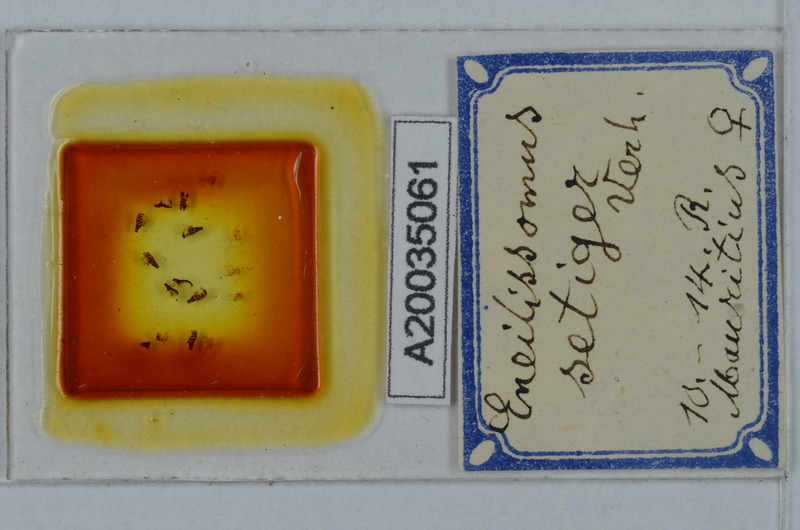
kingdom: Animalia
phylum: Arthropoda
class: Diplopoda
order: Polydesmida
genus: Eneillissomus
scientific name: Eneillissomus setiger
